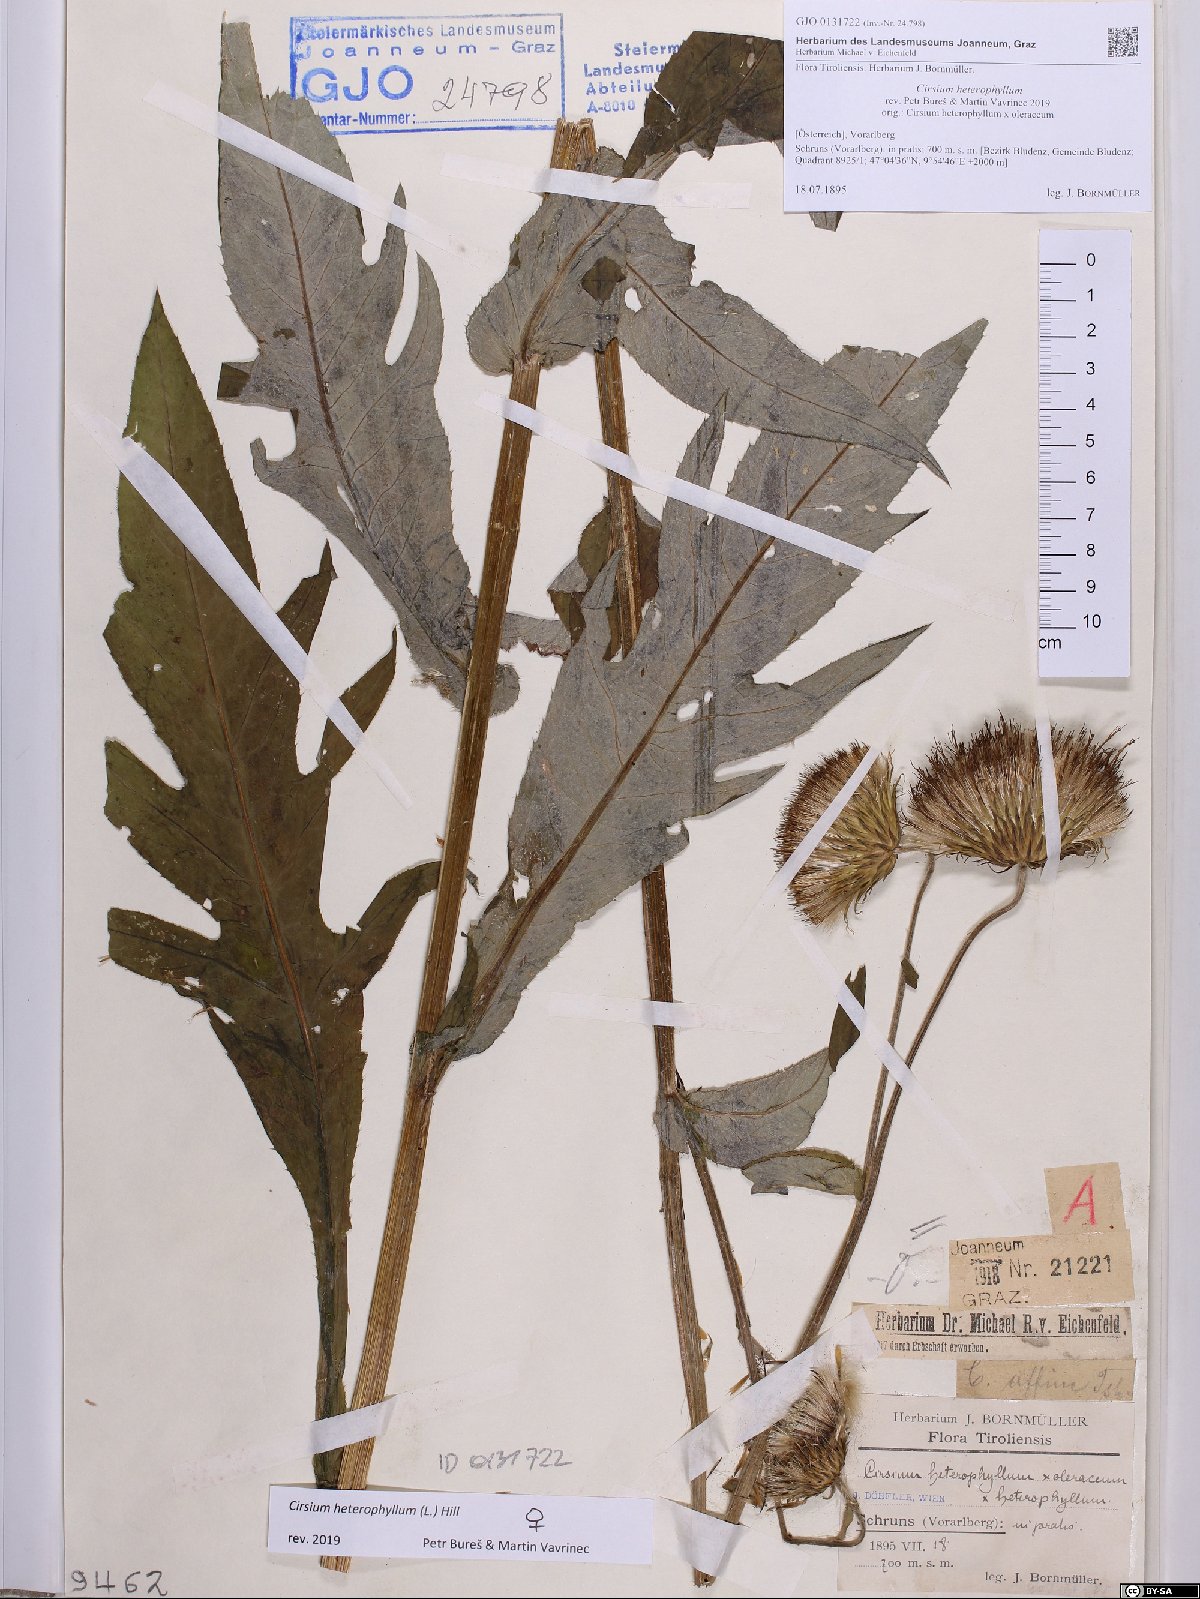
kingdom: Plantae
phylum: Tracheophyta
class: Magnoliopsida
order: Asterales
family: Asteraceae
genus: Cirsium
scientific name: Cirsium heterophyllum
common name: Melancholy thistle
